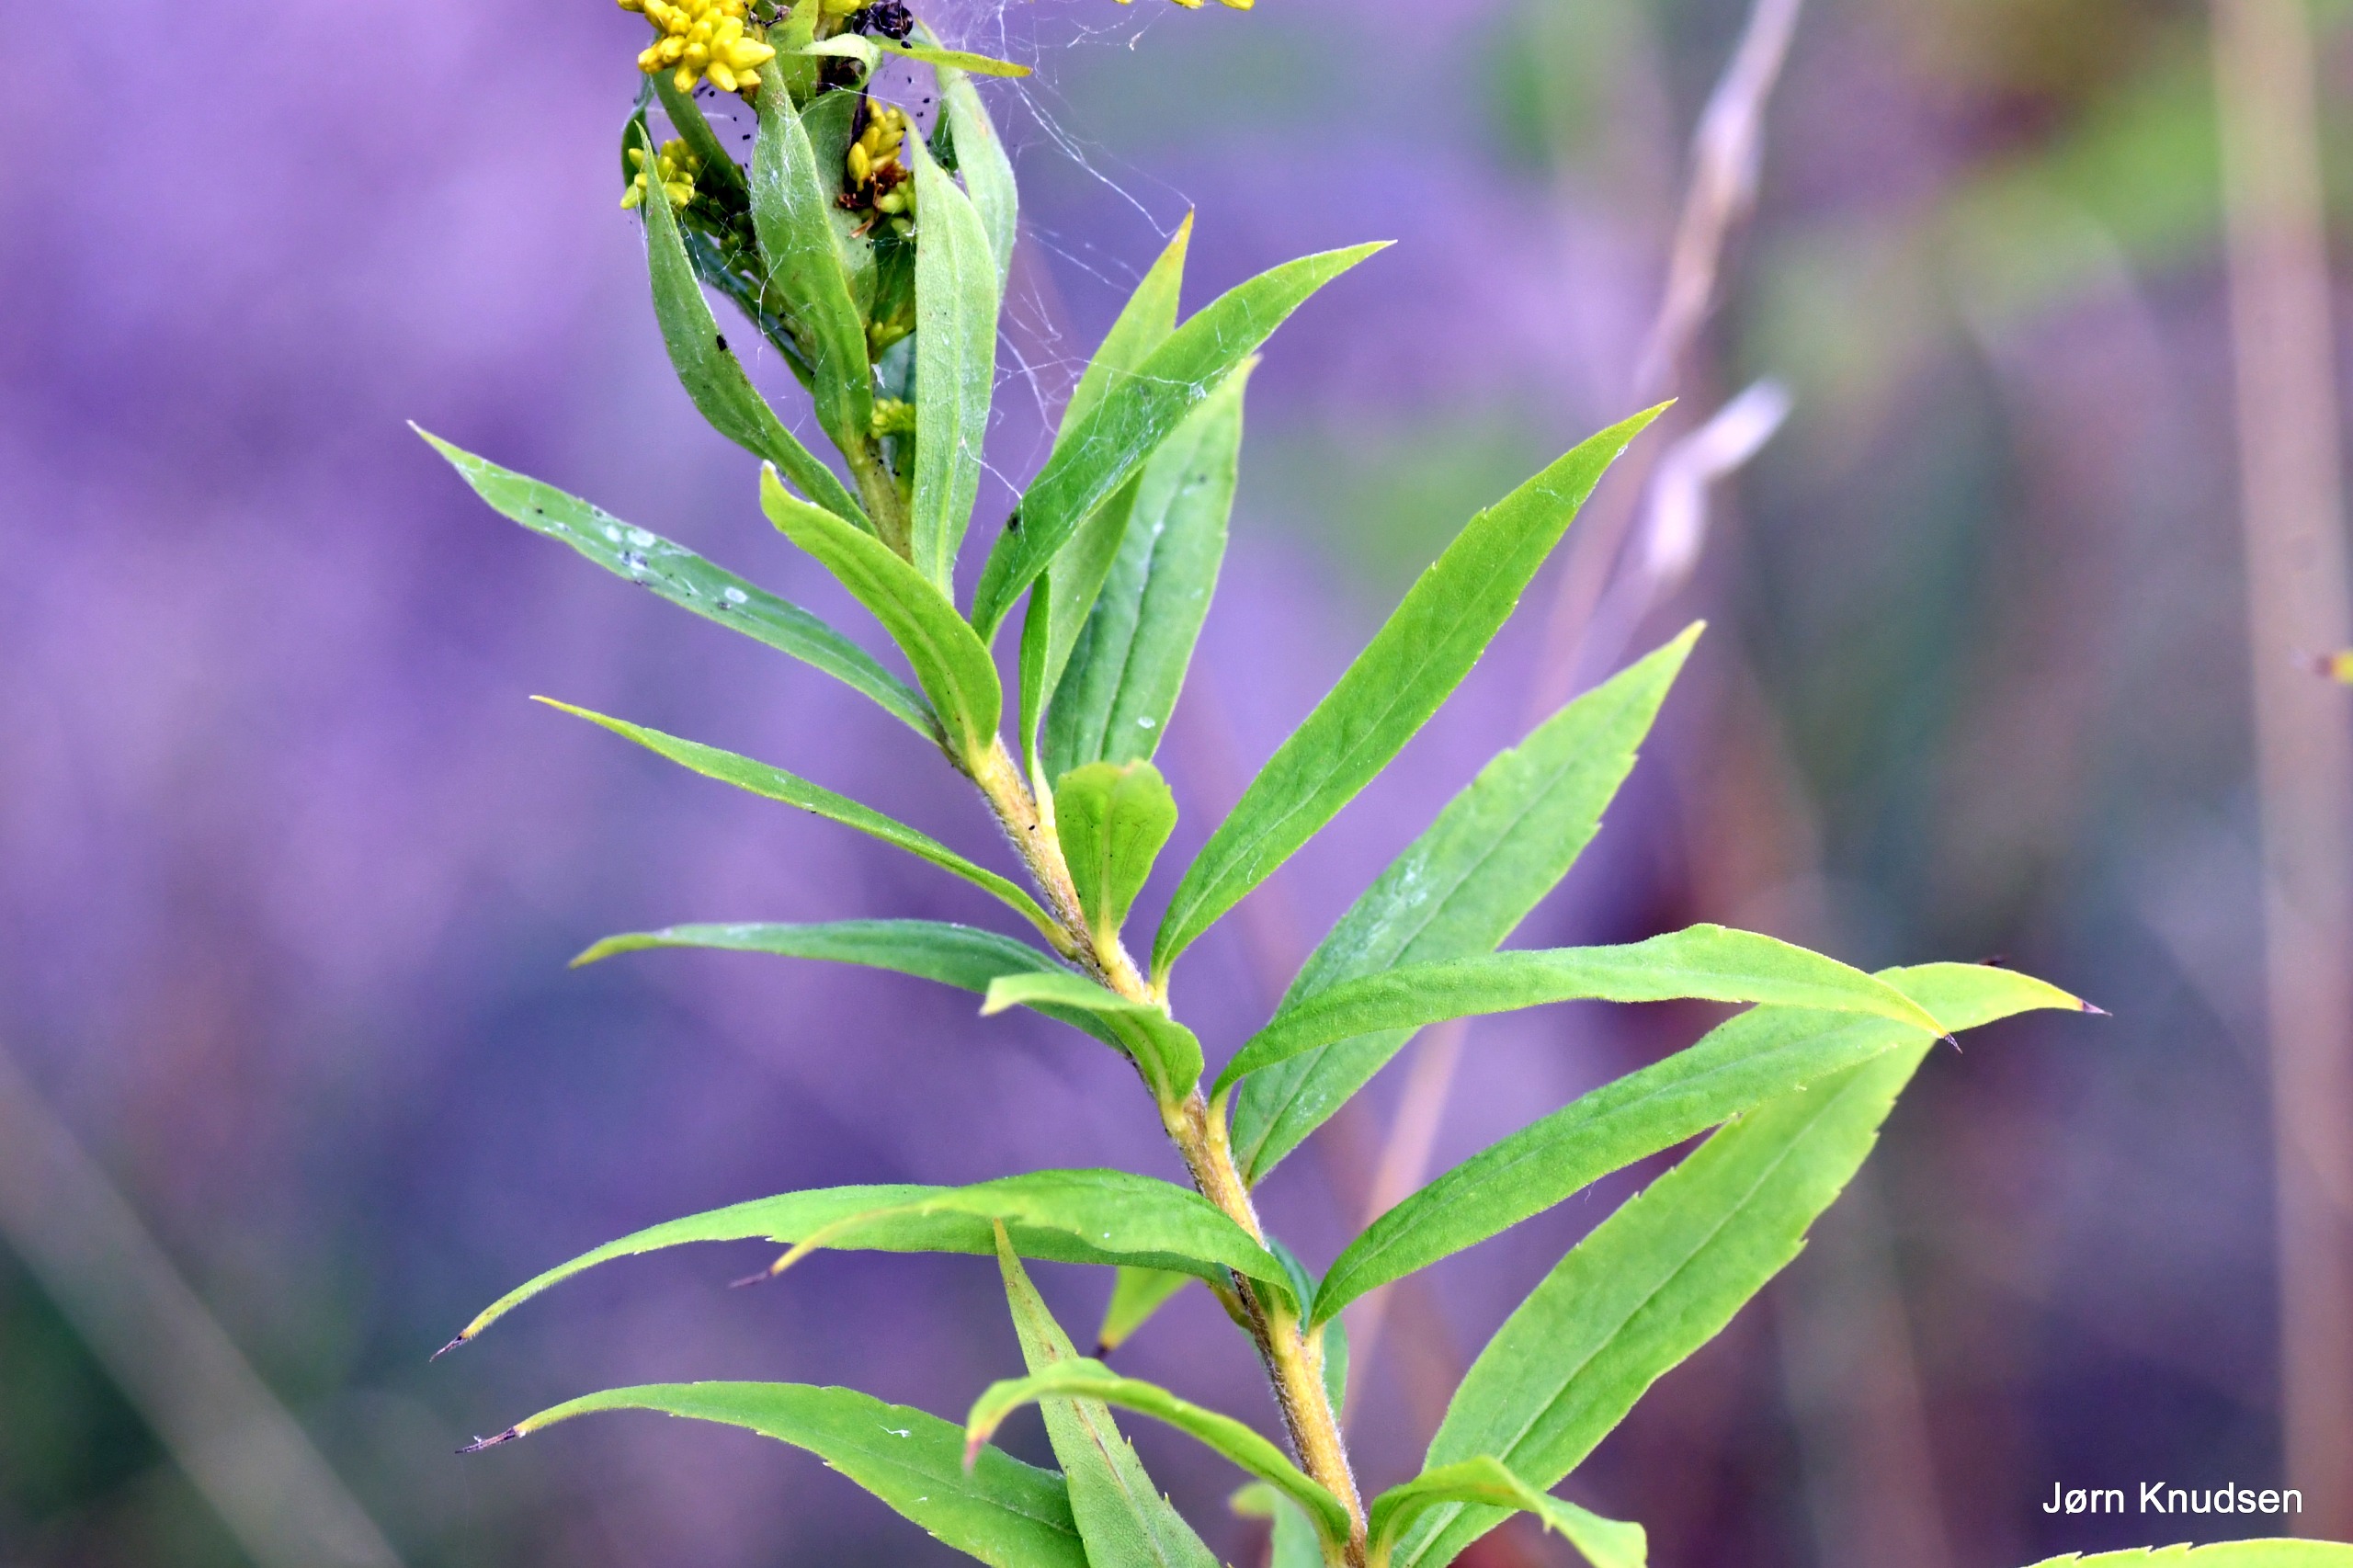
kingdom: Plantae
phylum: Tracheophyta
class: Magnoliopsida
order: Asterales
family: Asteraceae
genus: Solidago
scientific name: Solidago canadensis
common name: Kanadisk gyldenris
